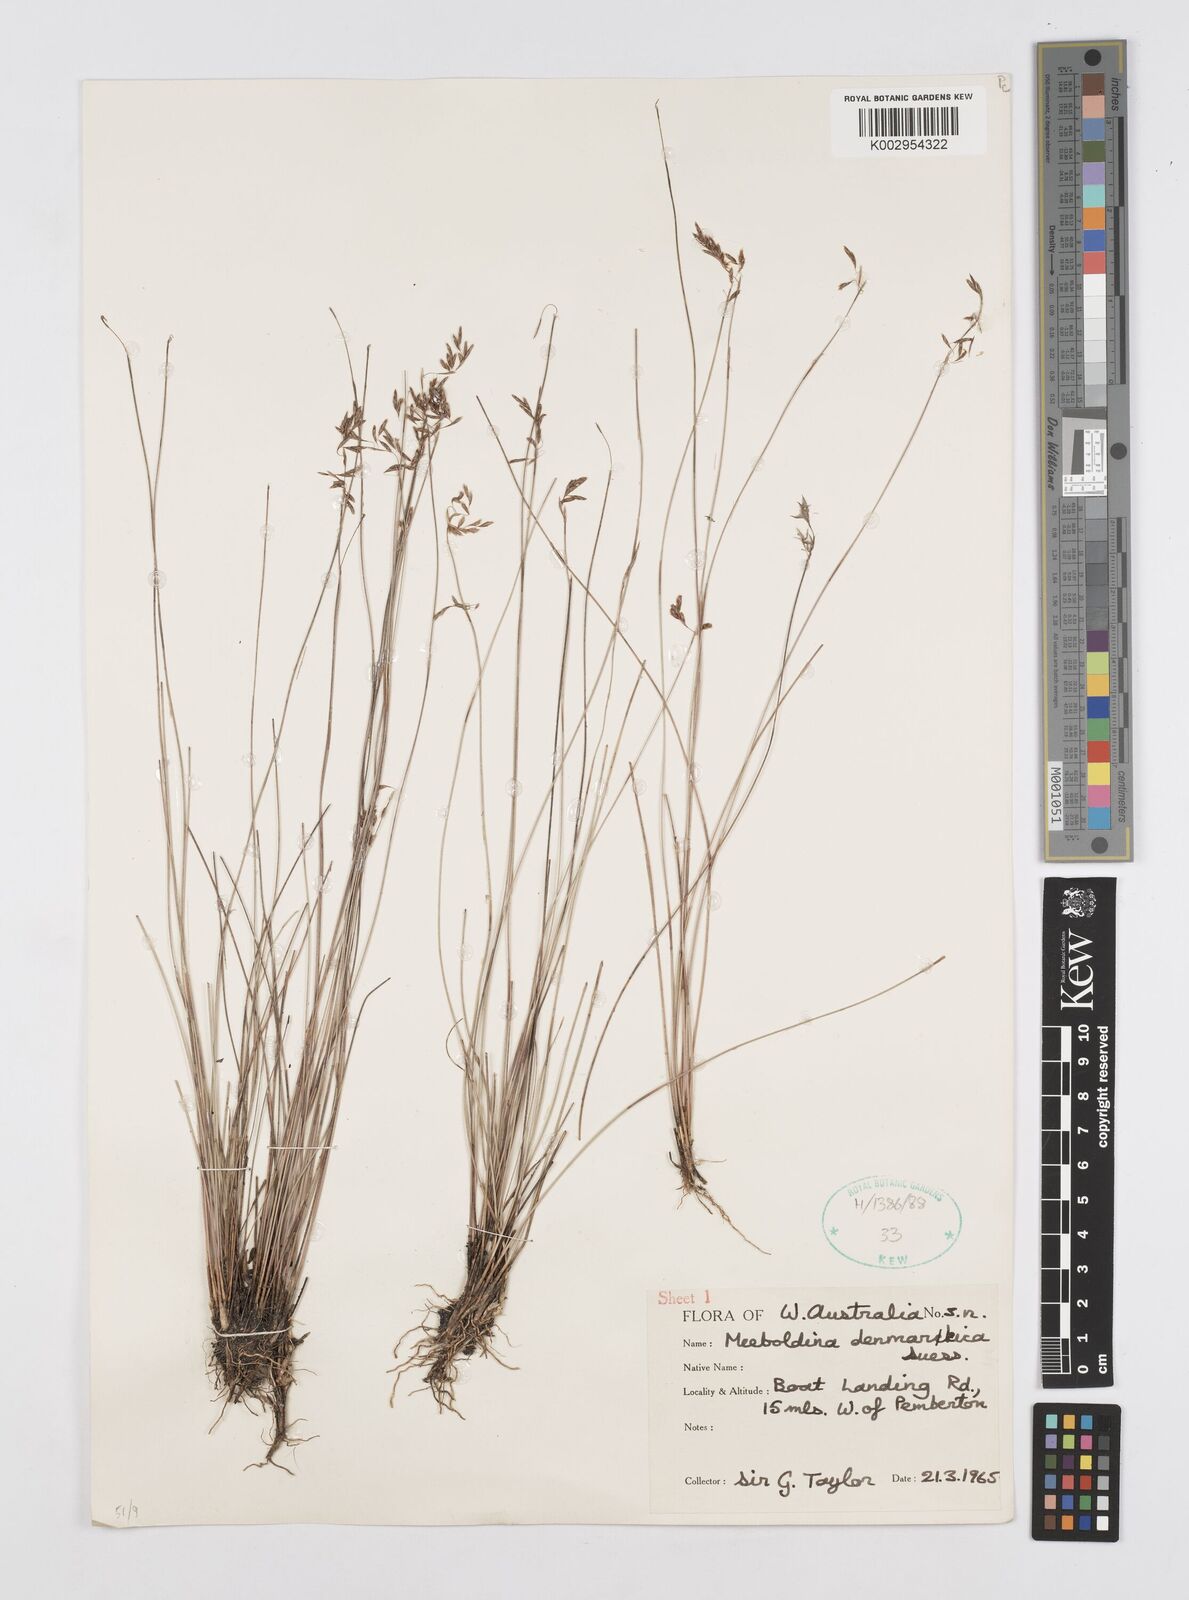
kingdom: Plantae
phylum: Tracheophyta
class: Liliopsida
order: Poales
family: Restionaceae
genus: Leptocarpus
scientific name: Leptocarpus denmarkicus
